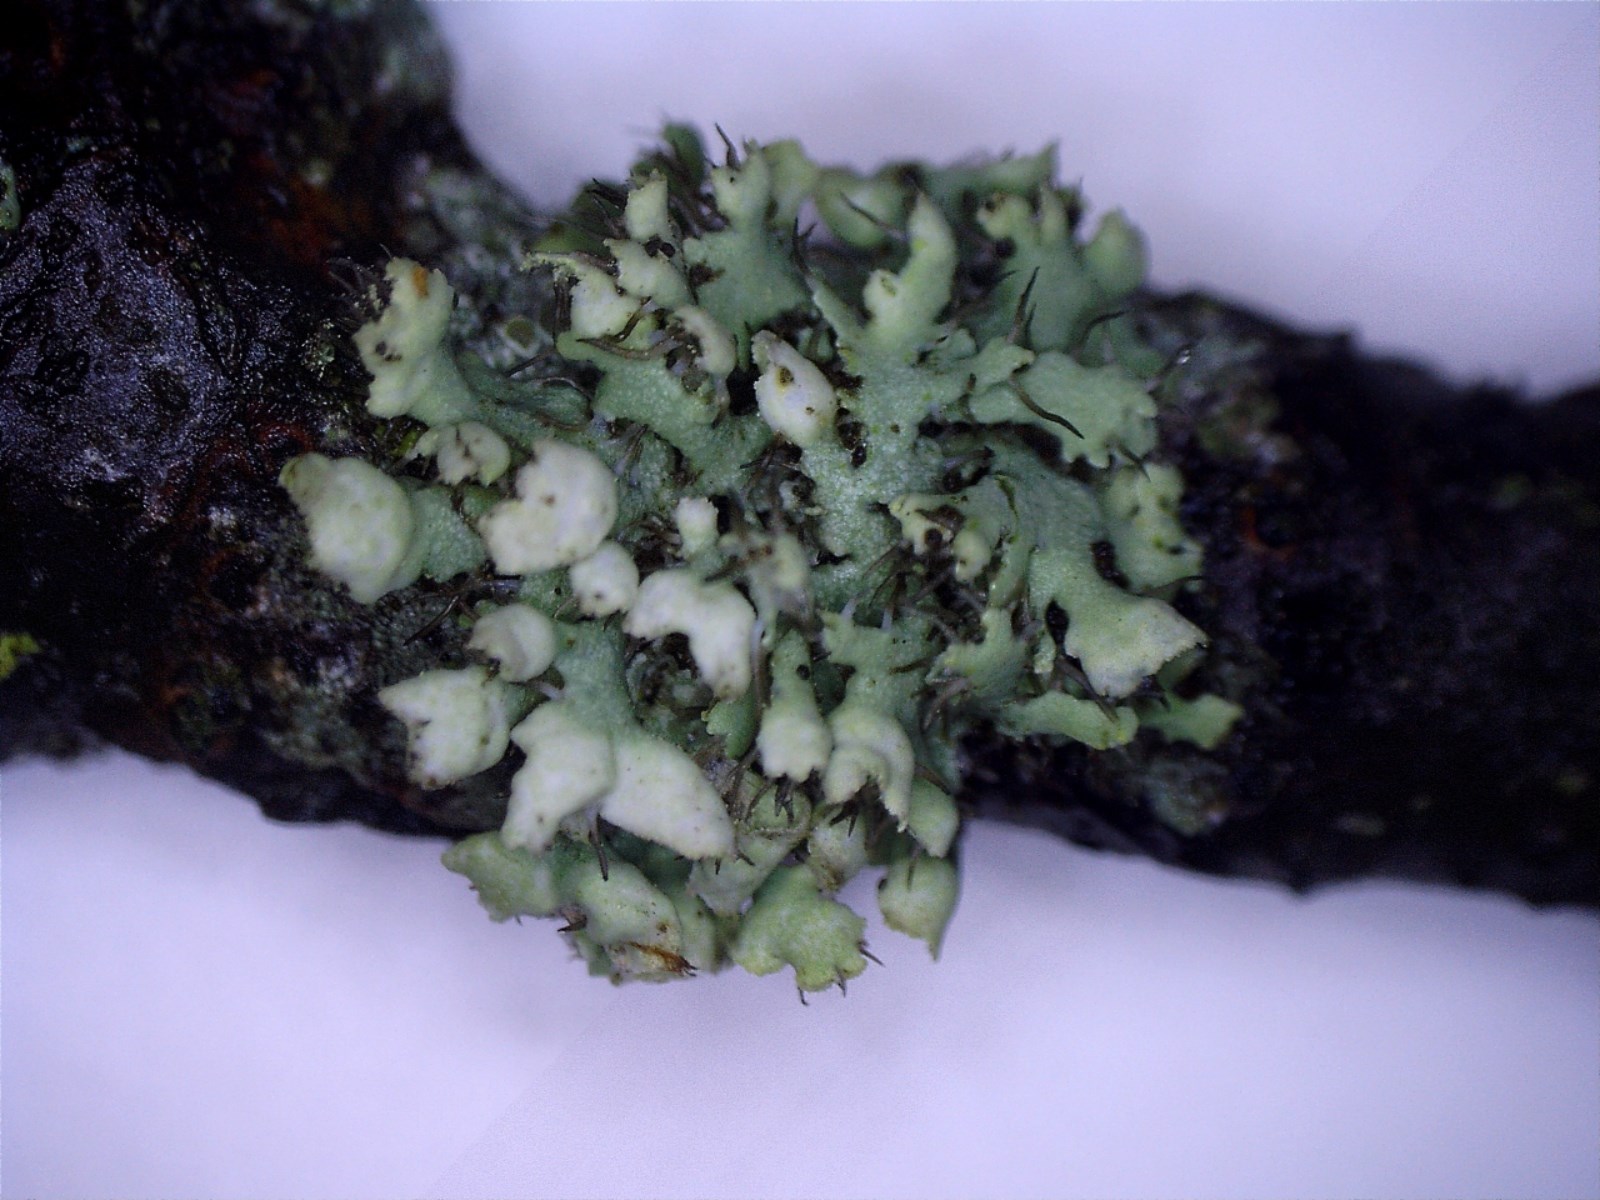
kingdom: Fungi
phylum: Ascomycota
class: Lecanoromycetes
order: Caliciales
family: Physciaceae
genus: Physcia
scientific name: Physcia adscendens
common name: hætte-rosetlav
